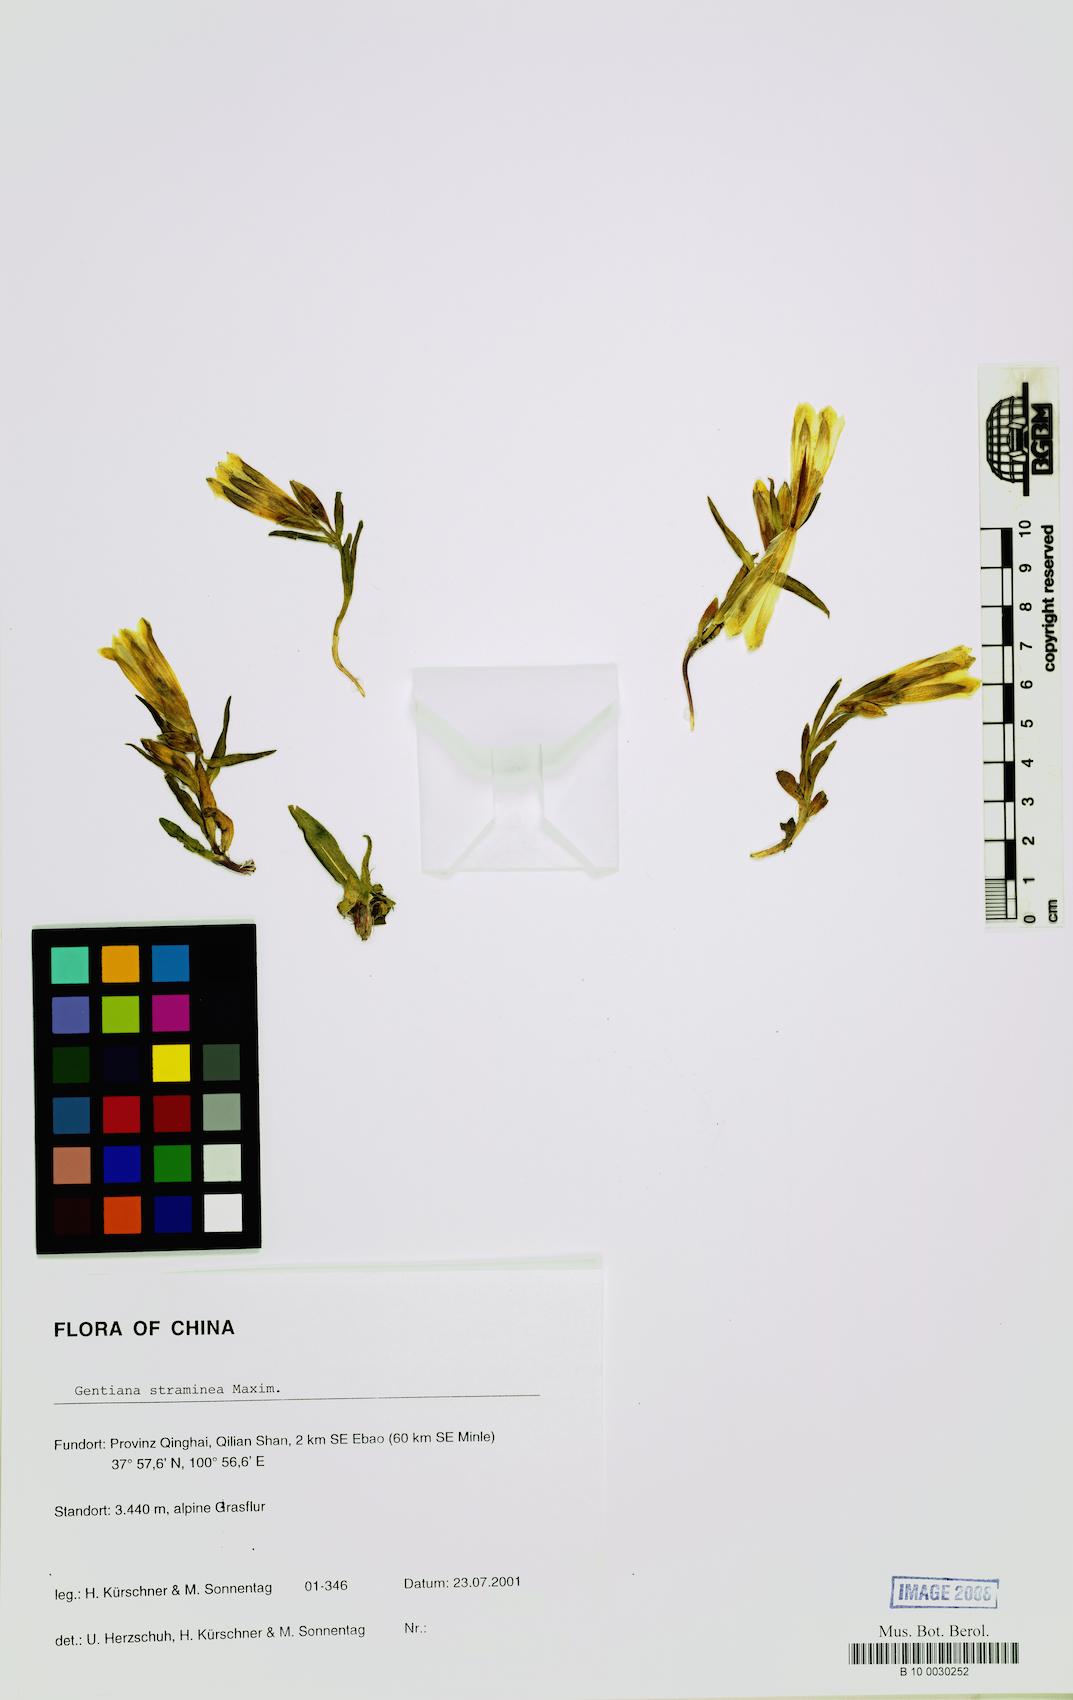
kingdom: Plantae
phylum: Tracheophyta
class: Magnoliopsida
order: Gentianales
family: Gentianaceae
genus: Gentiana
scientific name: Gentiana straminea
